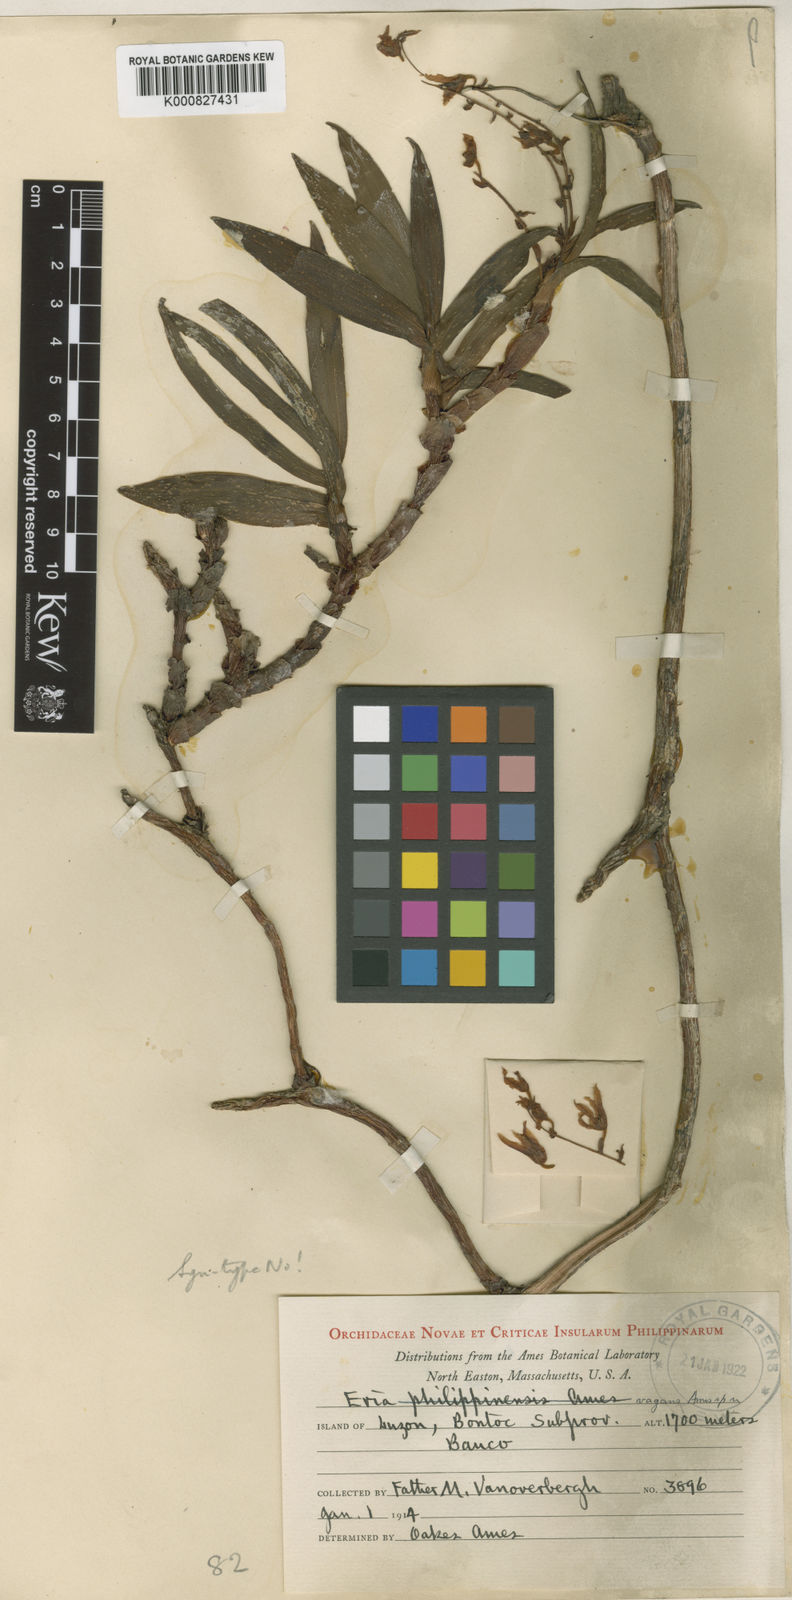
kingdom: Plantae
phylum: Tracheophyta
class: Liliopsida
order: Asparagales
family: Orchidaceae
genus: Pinalia
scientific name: Pinalia vagans
